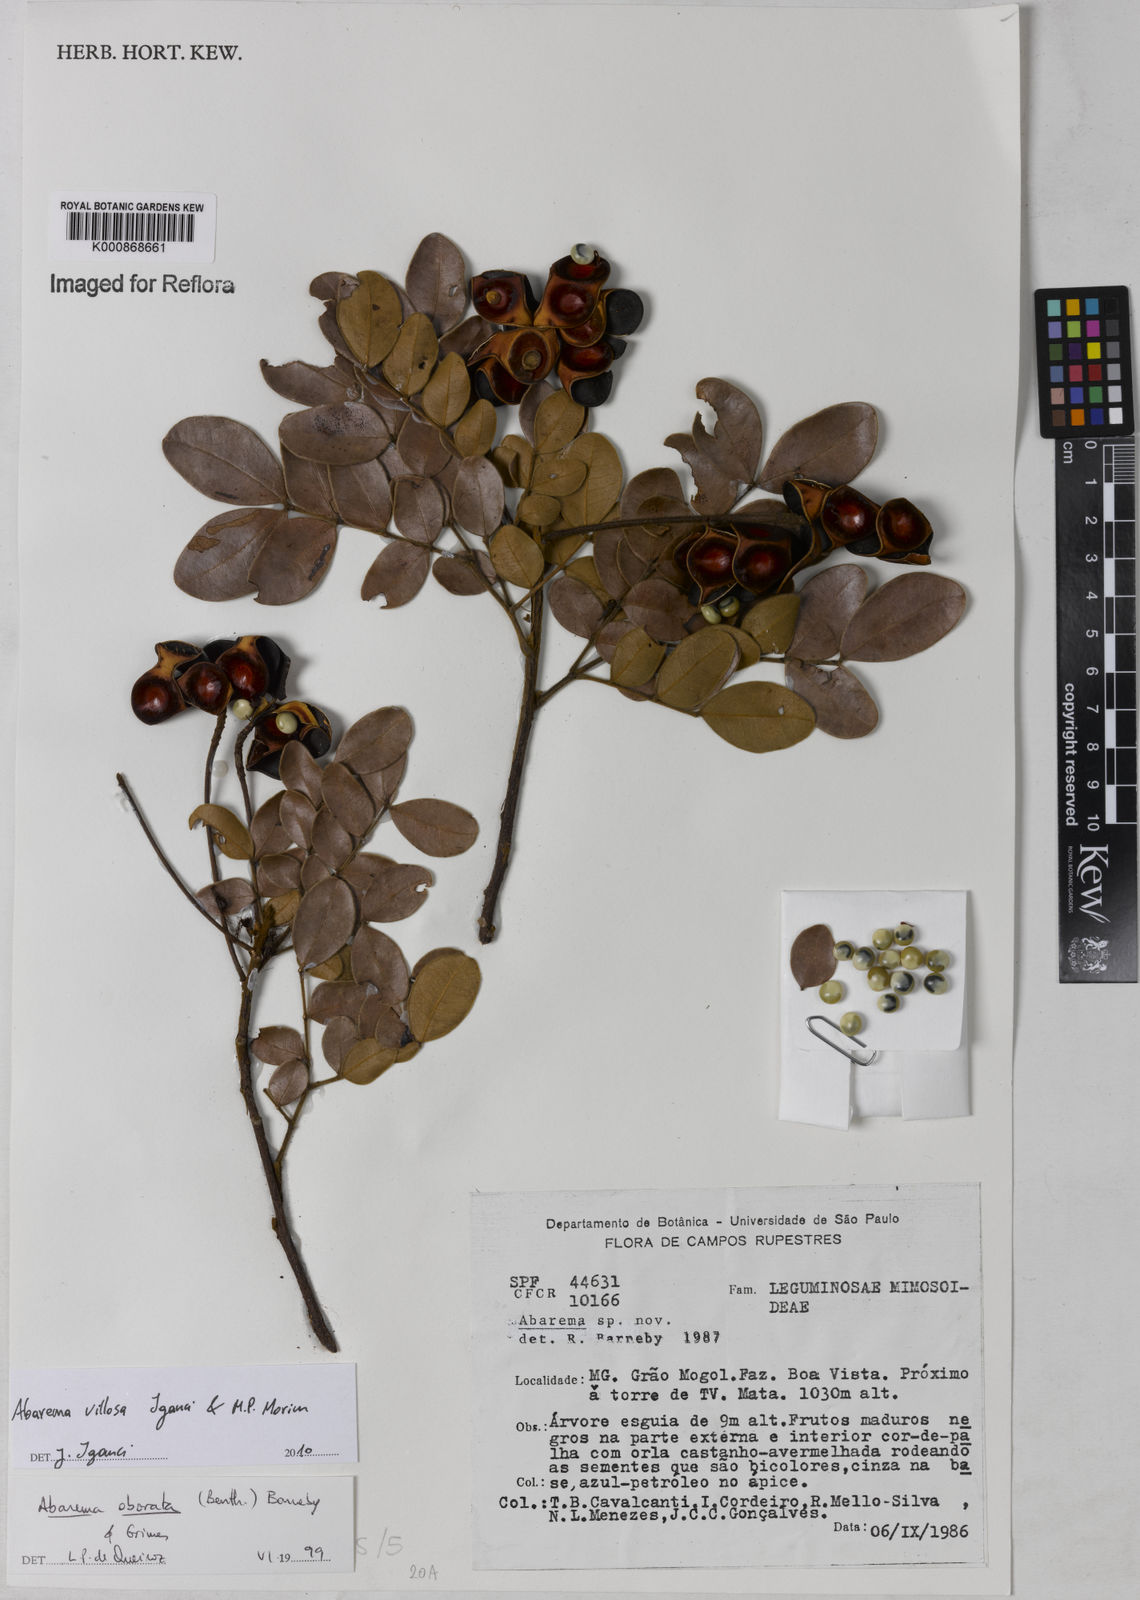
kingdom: Plantae
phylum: Tracheophyta
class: Magnoliopsida
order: Fabales
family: Fabaceae
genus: Jupunba
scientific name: Jupunba villosa
